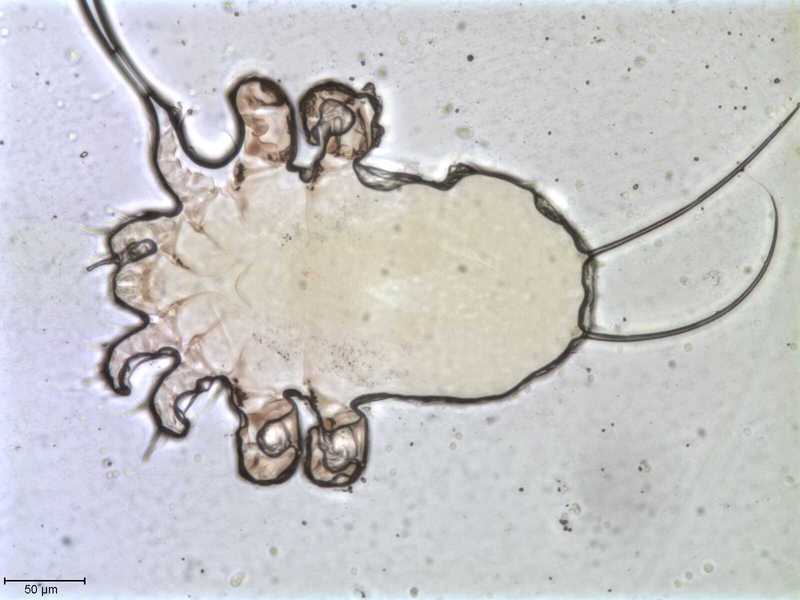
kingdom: Animalia
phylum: Arthropoda
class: Arachnida
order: Sarcoptiformes
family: Myocoptidae
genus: Gliricoptes
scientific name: Gliricoptes
